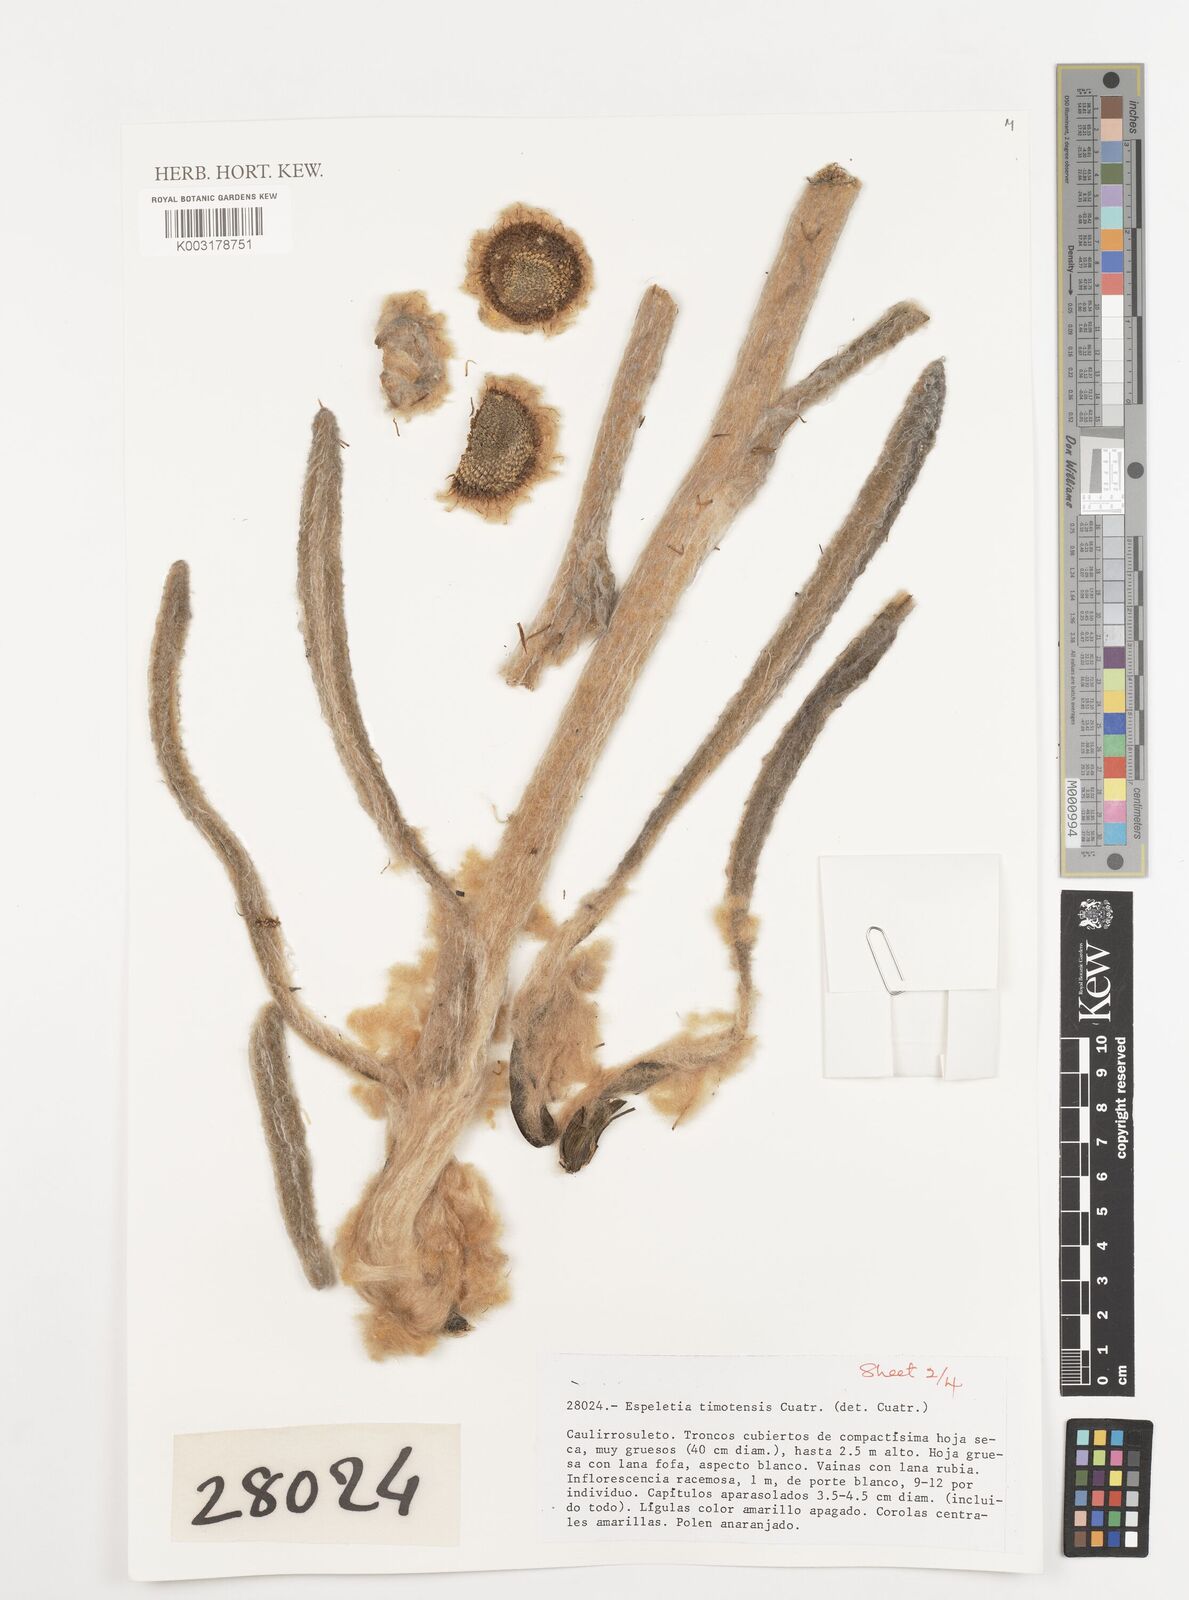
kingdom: Plantae
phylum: Tracheophyta
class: Magnoliopsida
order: Asterales
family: Asteraceae
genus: Espeletia
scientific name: Espeletia timotensis
